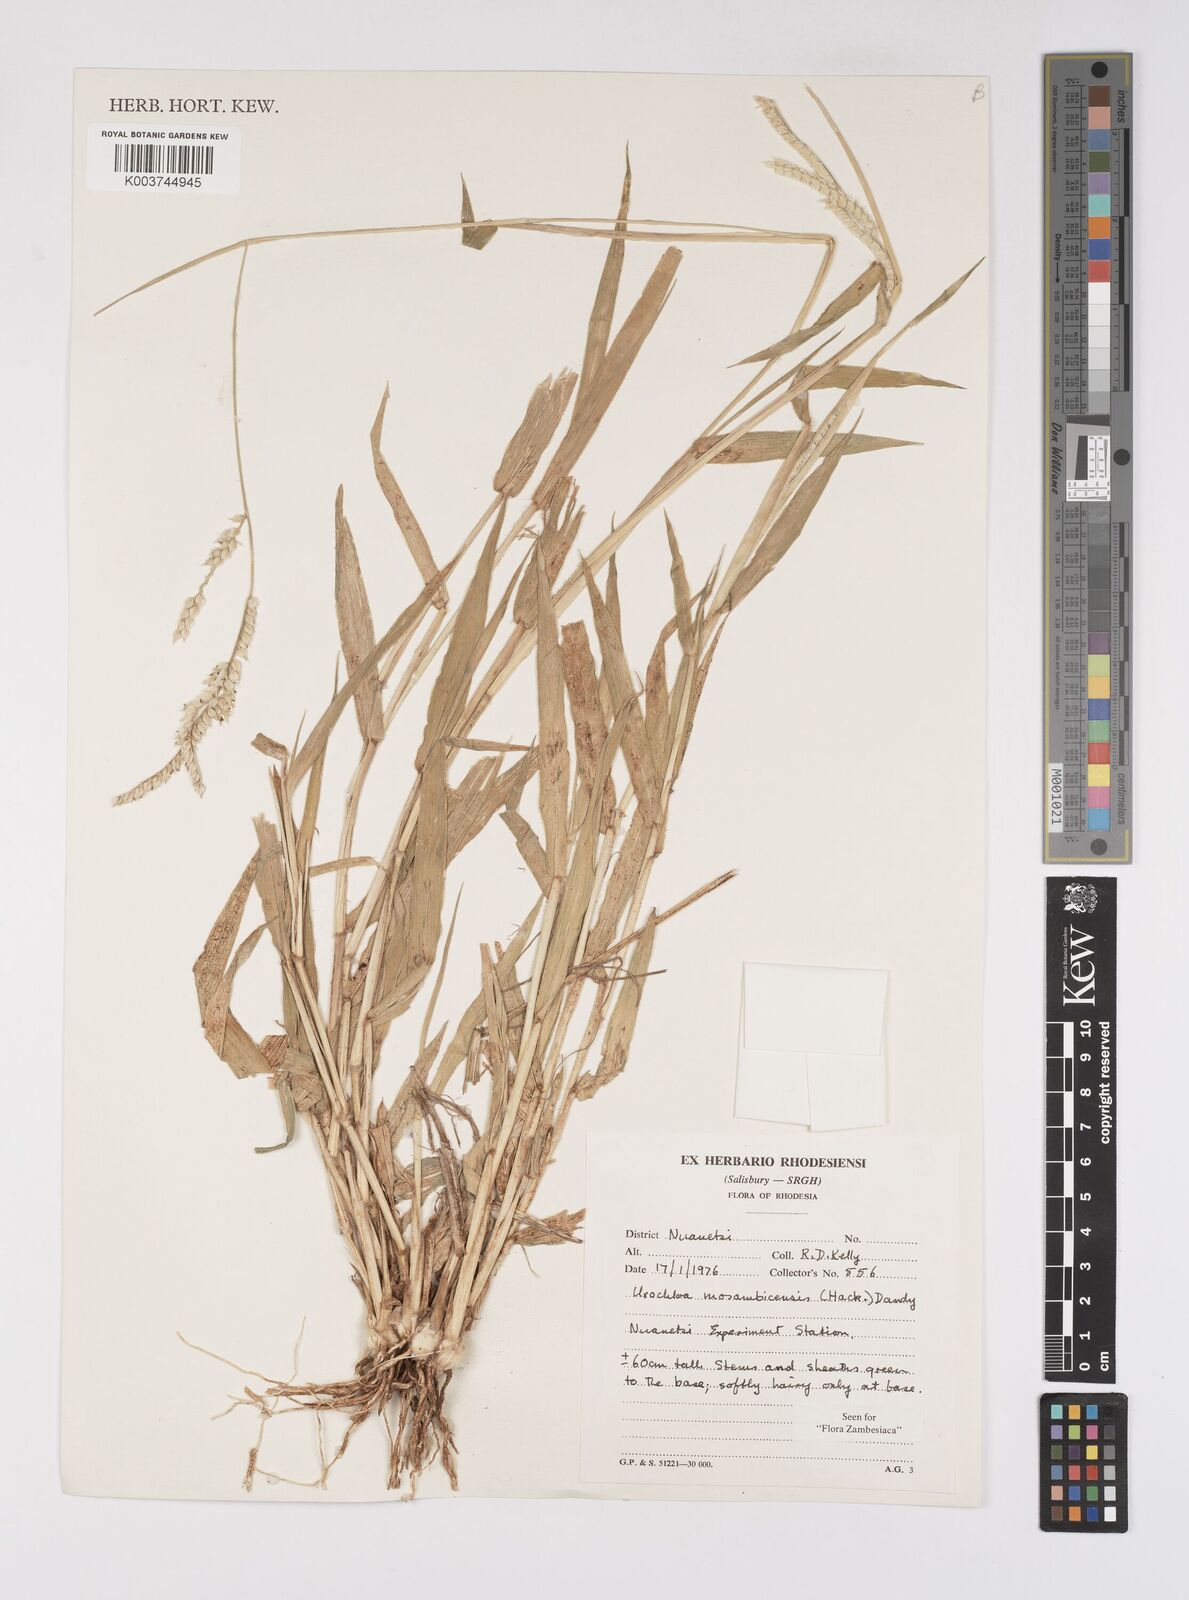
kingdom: Plantae
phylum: Tracheophyta
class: Liliopsida
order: Poales
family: Poaceae
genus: Urochloa
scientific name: Urochloa trichopus
